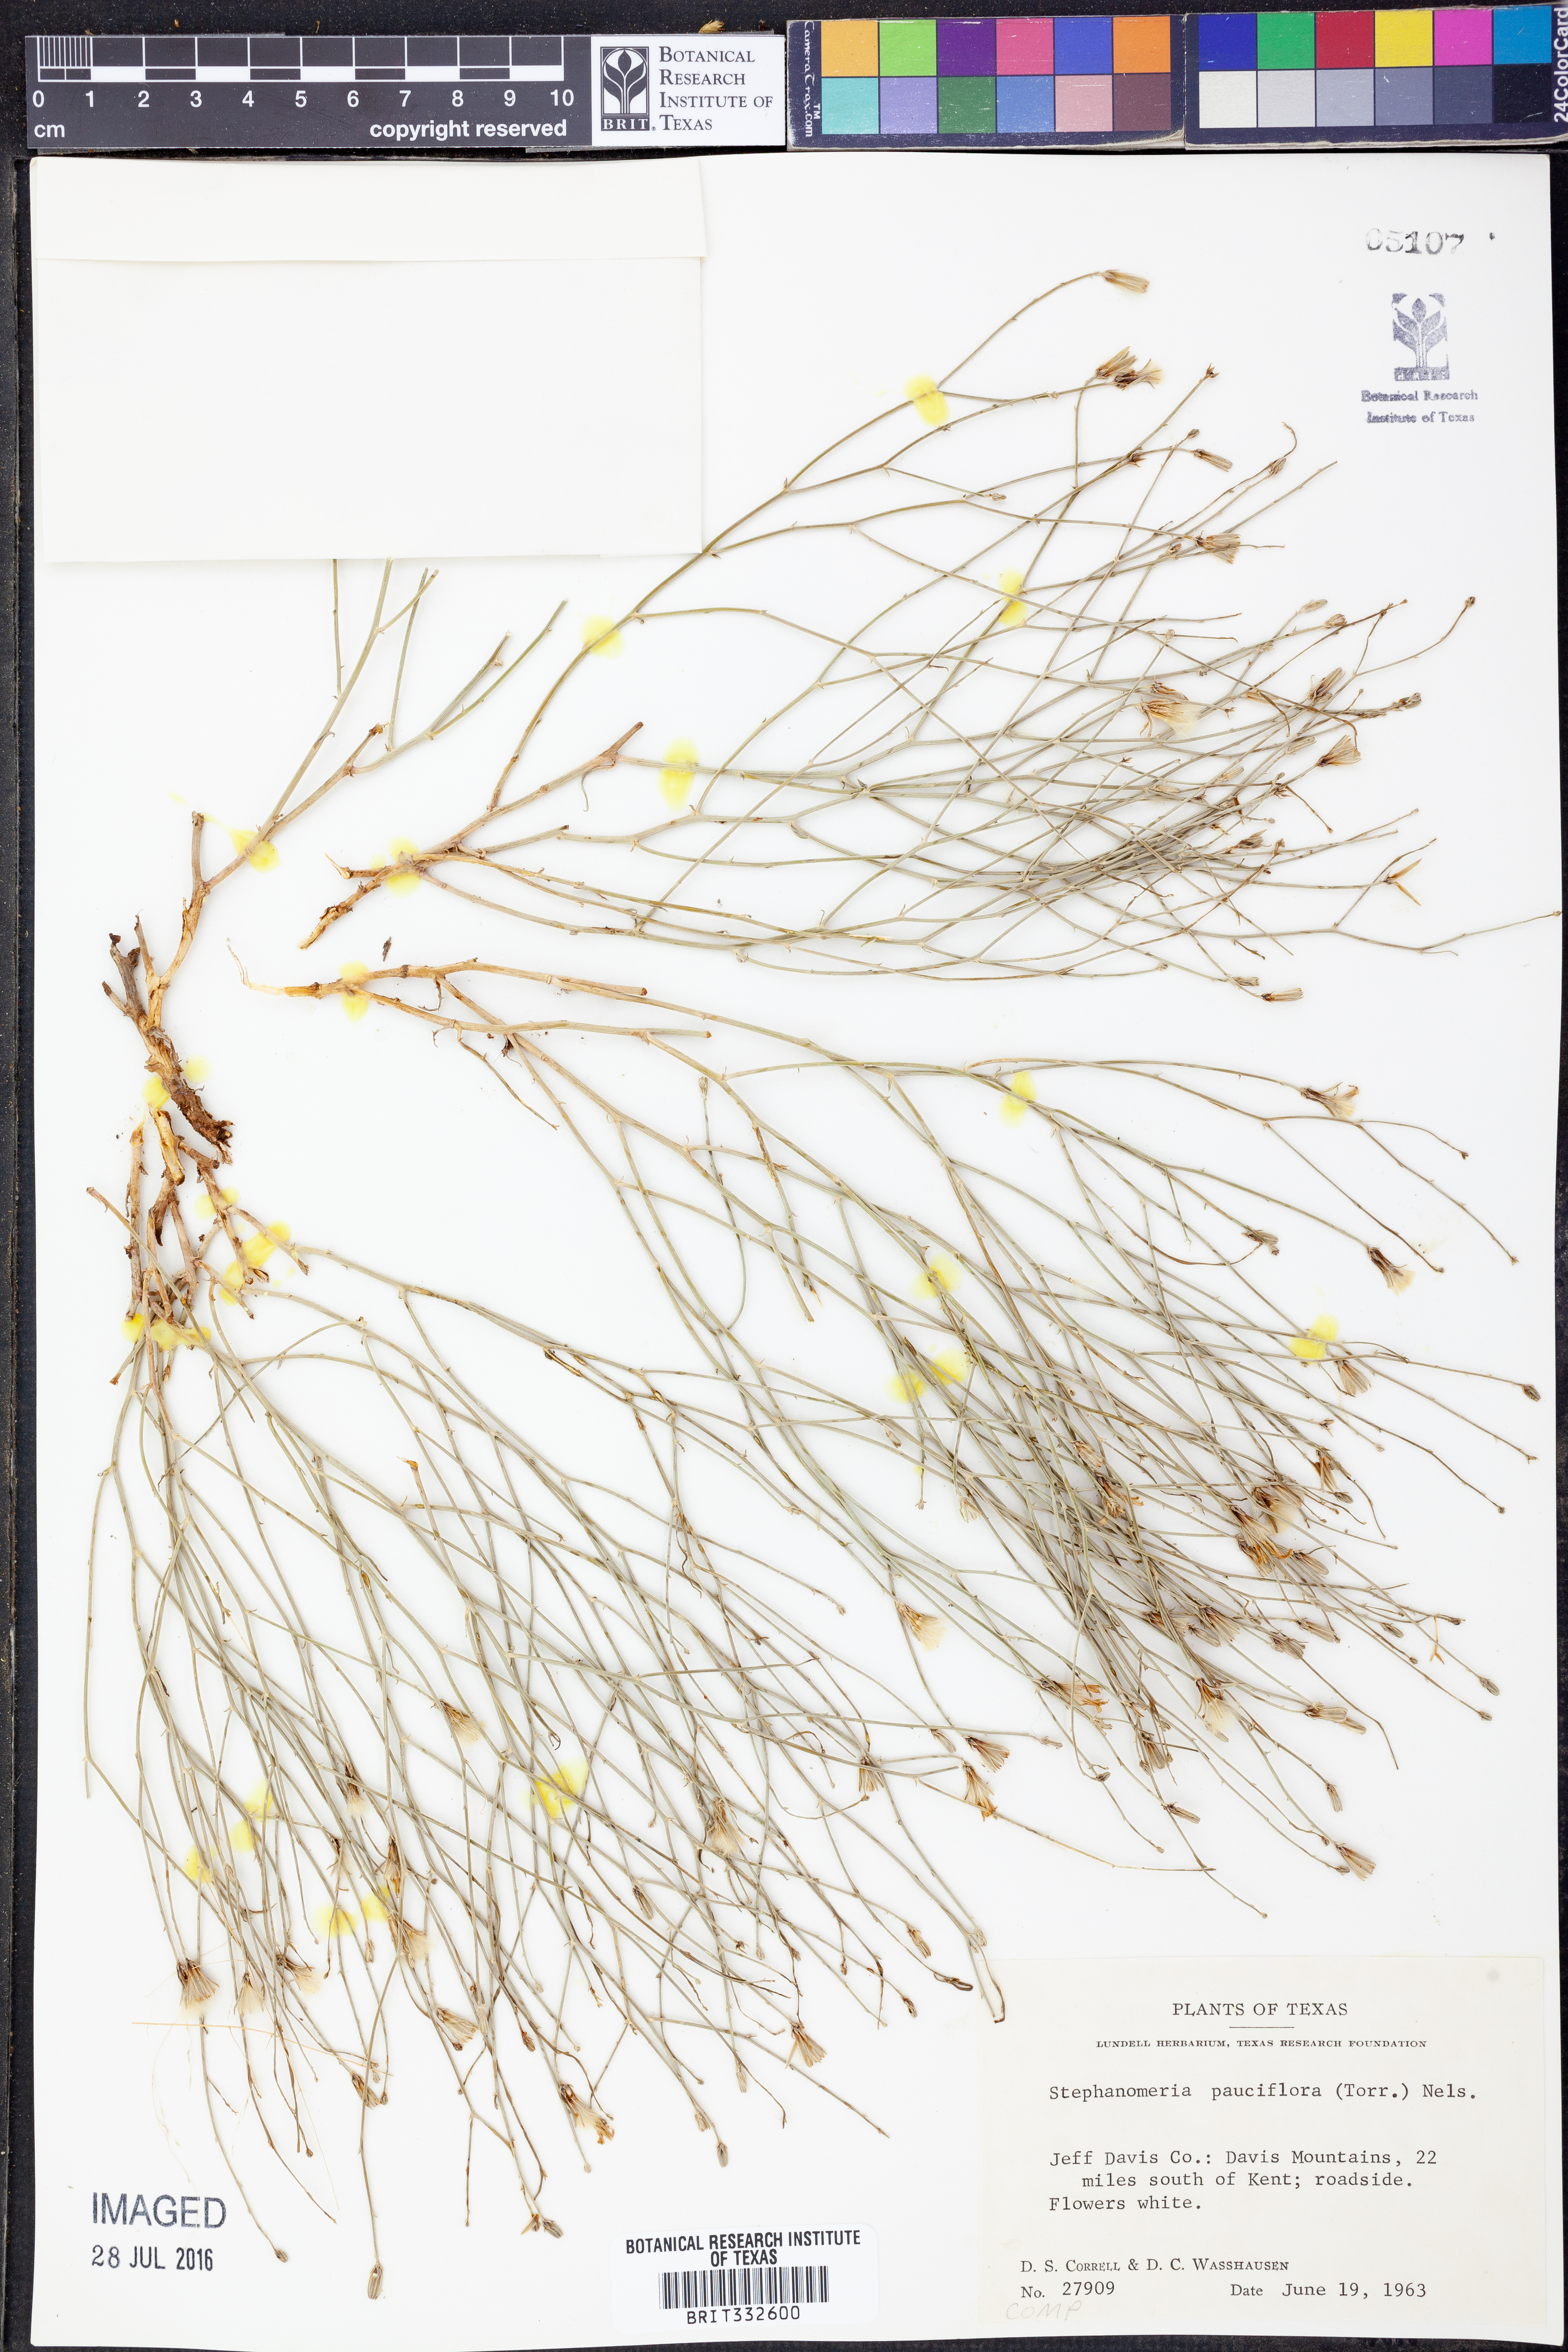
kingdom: Plantae
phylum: Tracheophyta
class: Magnoliopsida
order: Asterales
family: Asteraceae
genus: Stephanomeria
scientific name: Stephanomeria pauciflora
